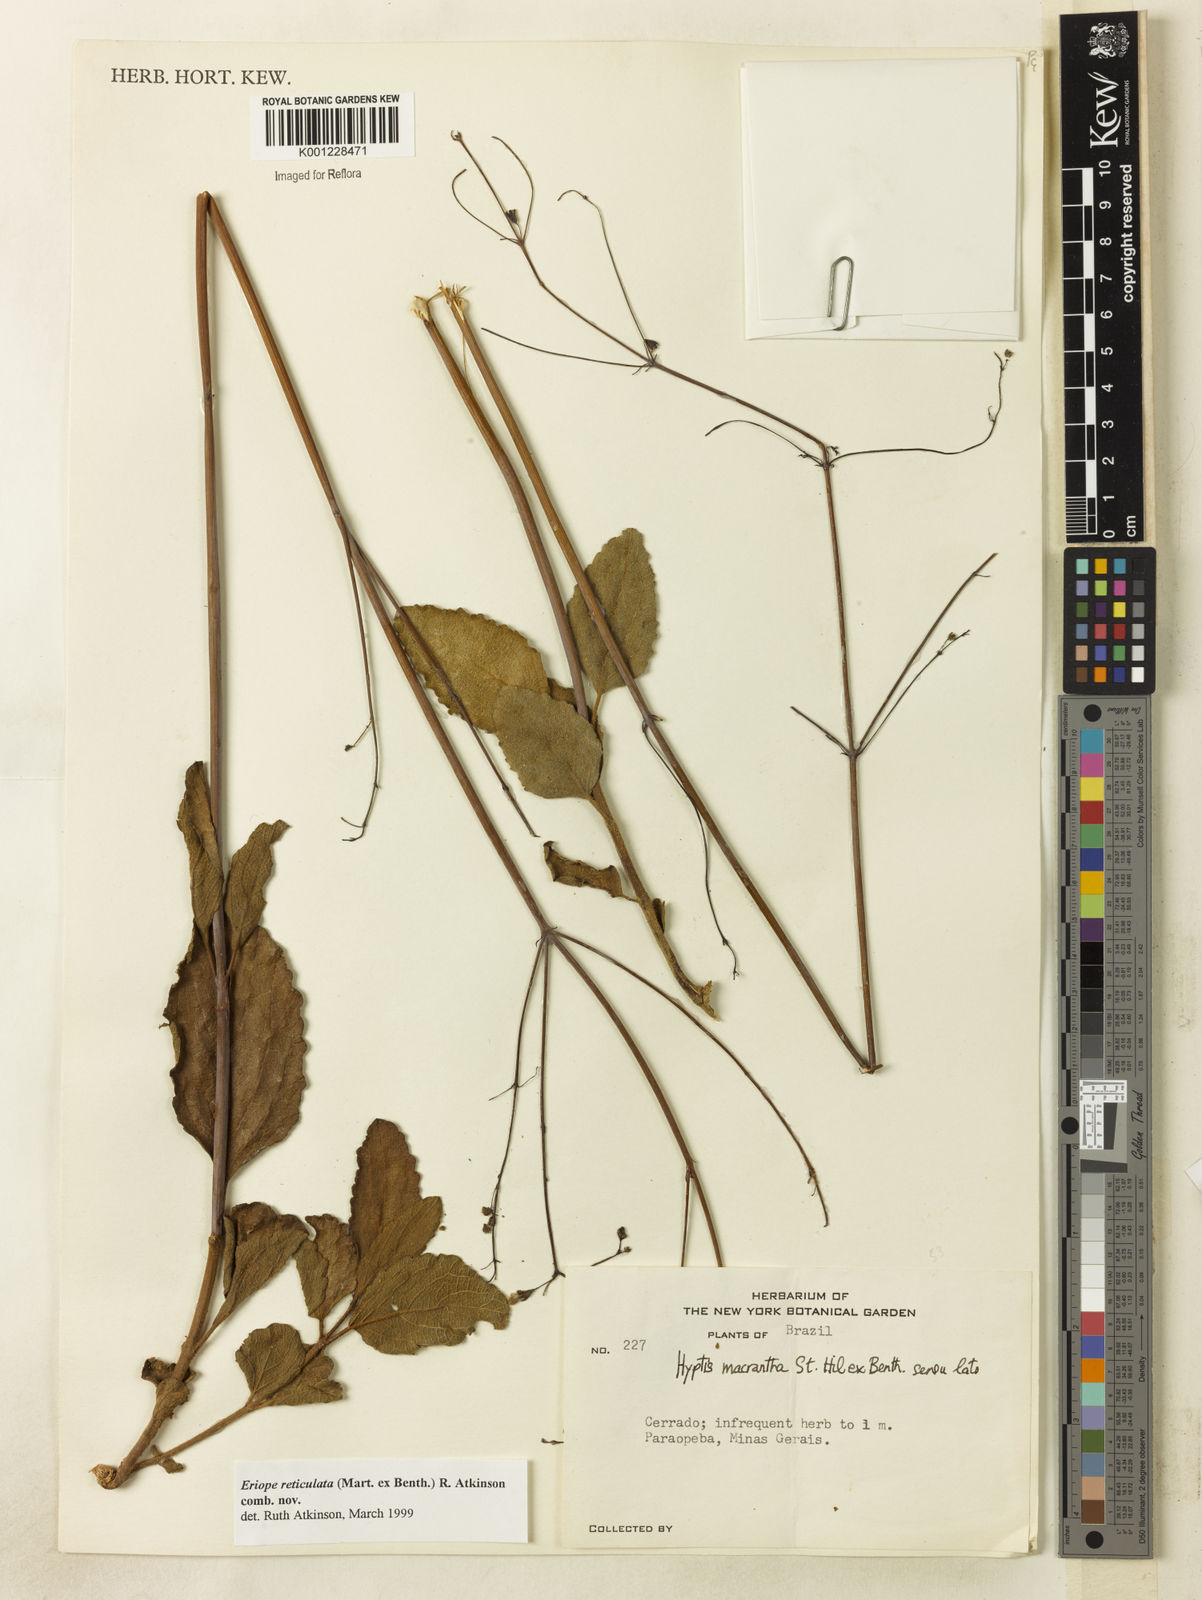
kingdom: Plantae
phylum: Tracheophyta
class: Magnoliopsida
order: Lamiales
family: Lamiaceae
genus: Hypenia
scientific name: Hypenia reticulata
